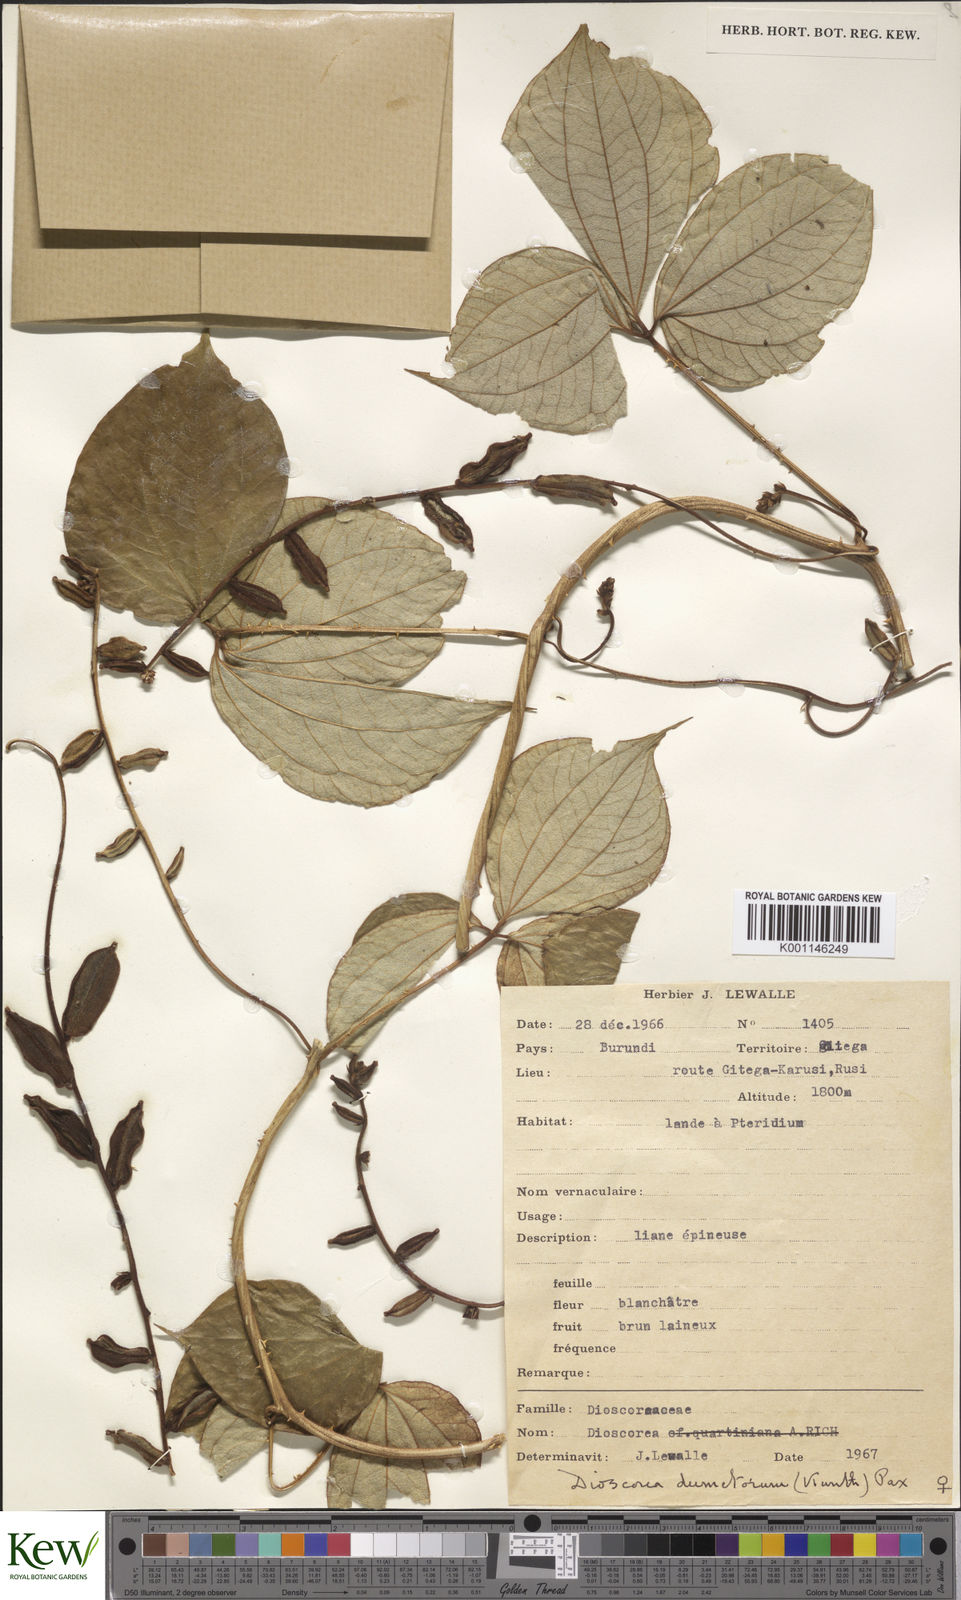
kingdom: Plantae
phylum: Tracheophyta
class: Liliopsida
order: Dioscoreales
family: Dioscoreaceae
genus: Dioscorea
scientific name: Dioscorea dumetorum
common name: African bitter yam
